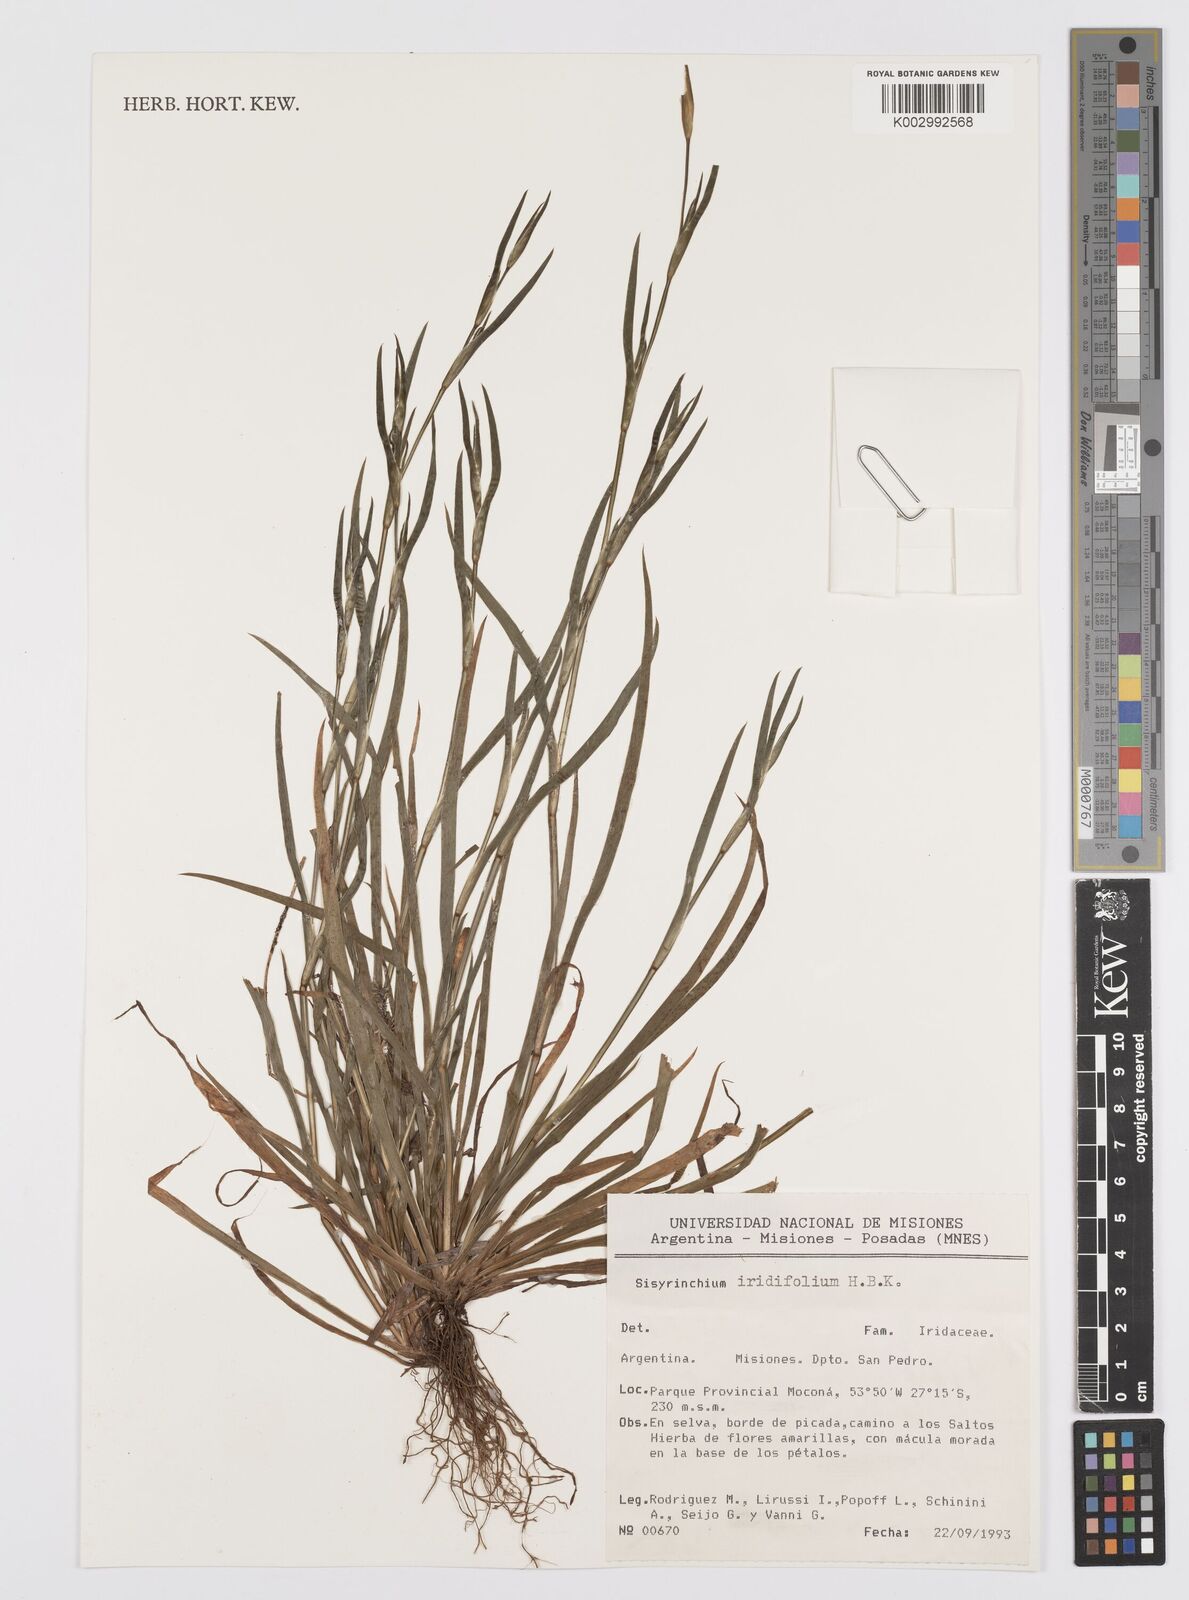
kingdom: Plantae
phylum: Tracheophyta
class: Liliopsida
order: Asparagales
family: Iridaceae
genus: Sisyrinchium
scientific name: Sisyrinchium micranthum
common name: Bermuda pigroot
